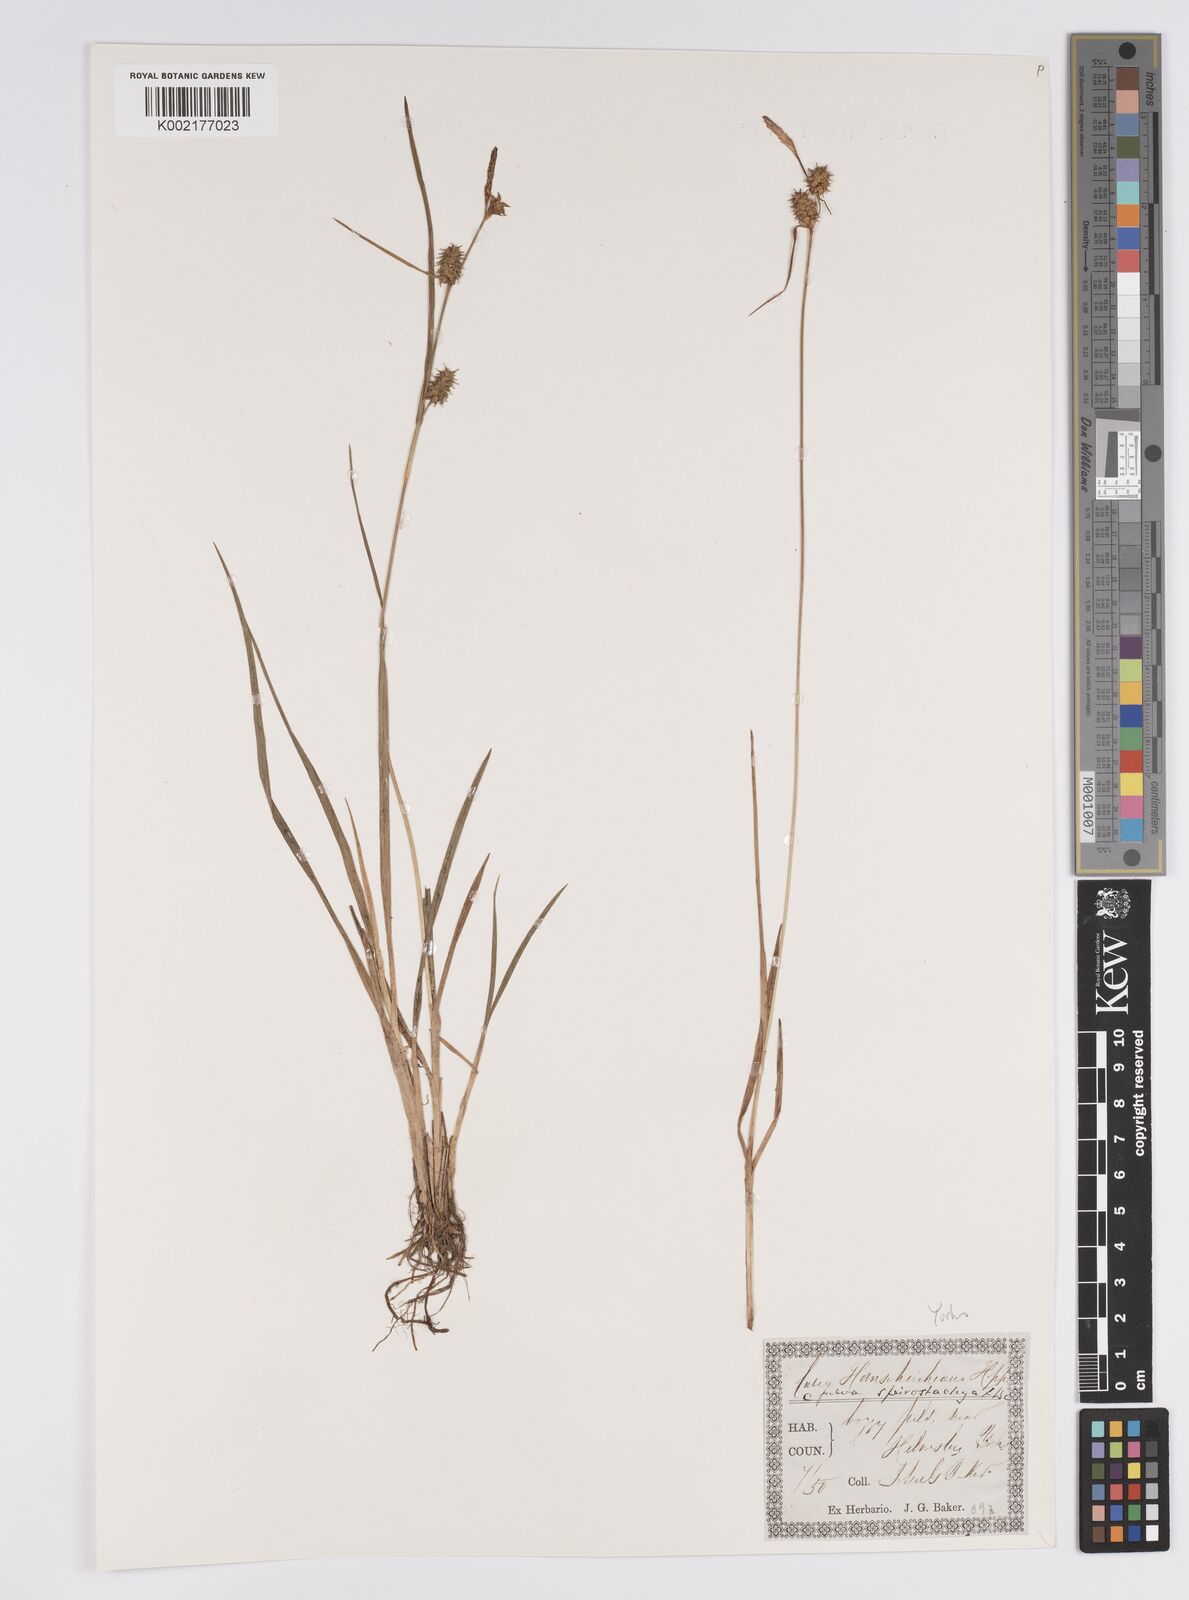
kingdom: Plantae
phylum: Tracheophyta
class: Liliopsida
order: Poales
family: Cyperaceae
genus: Carex
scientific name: Carex hostiana
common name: Tawny sedge
